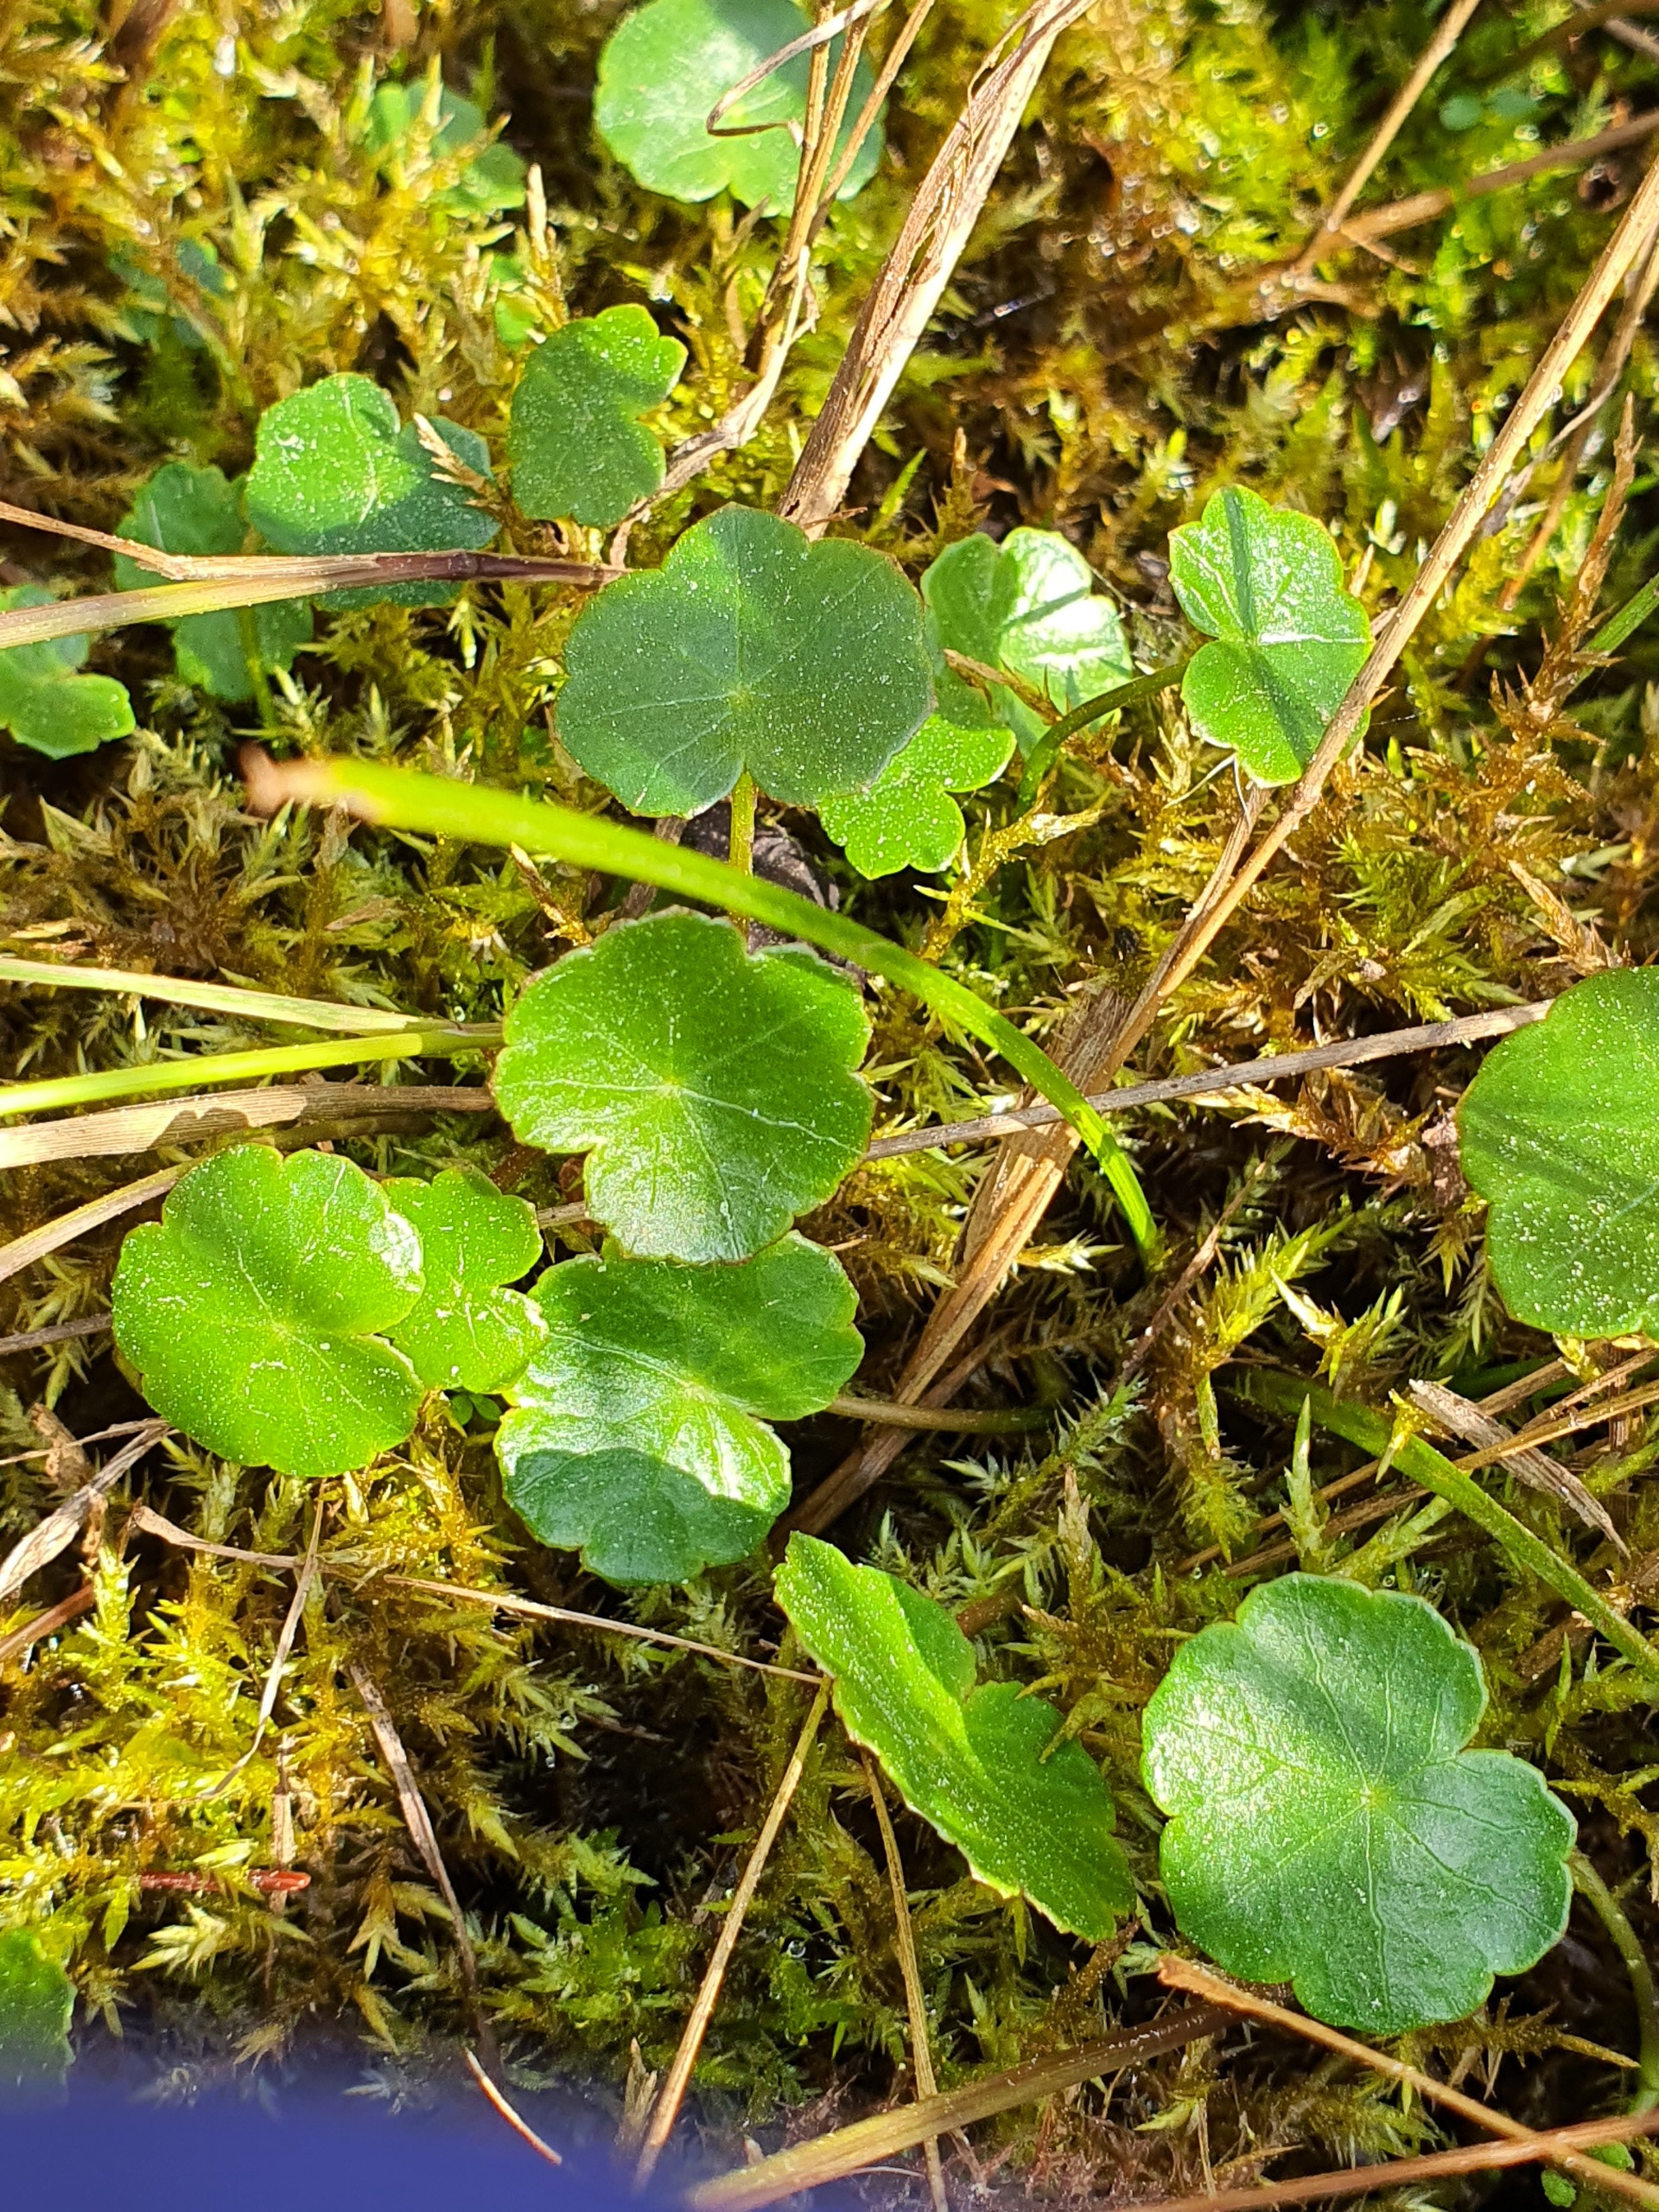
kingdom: Plantae
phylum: Tracheophyta
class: Magnoliopsida
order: Apiales
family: Araliaceae
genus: Hydrocotyle
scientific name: Hydrocotyle vulgaris
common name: Vandnavle
